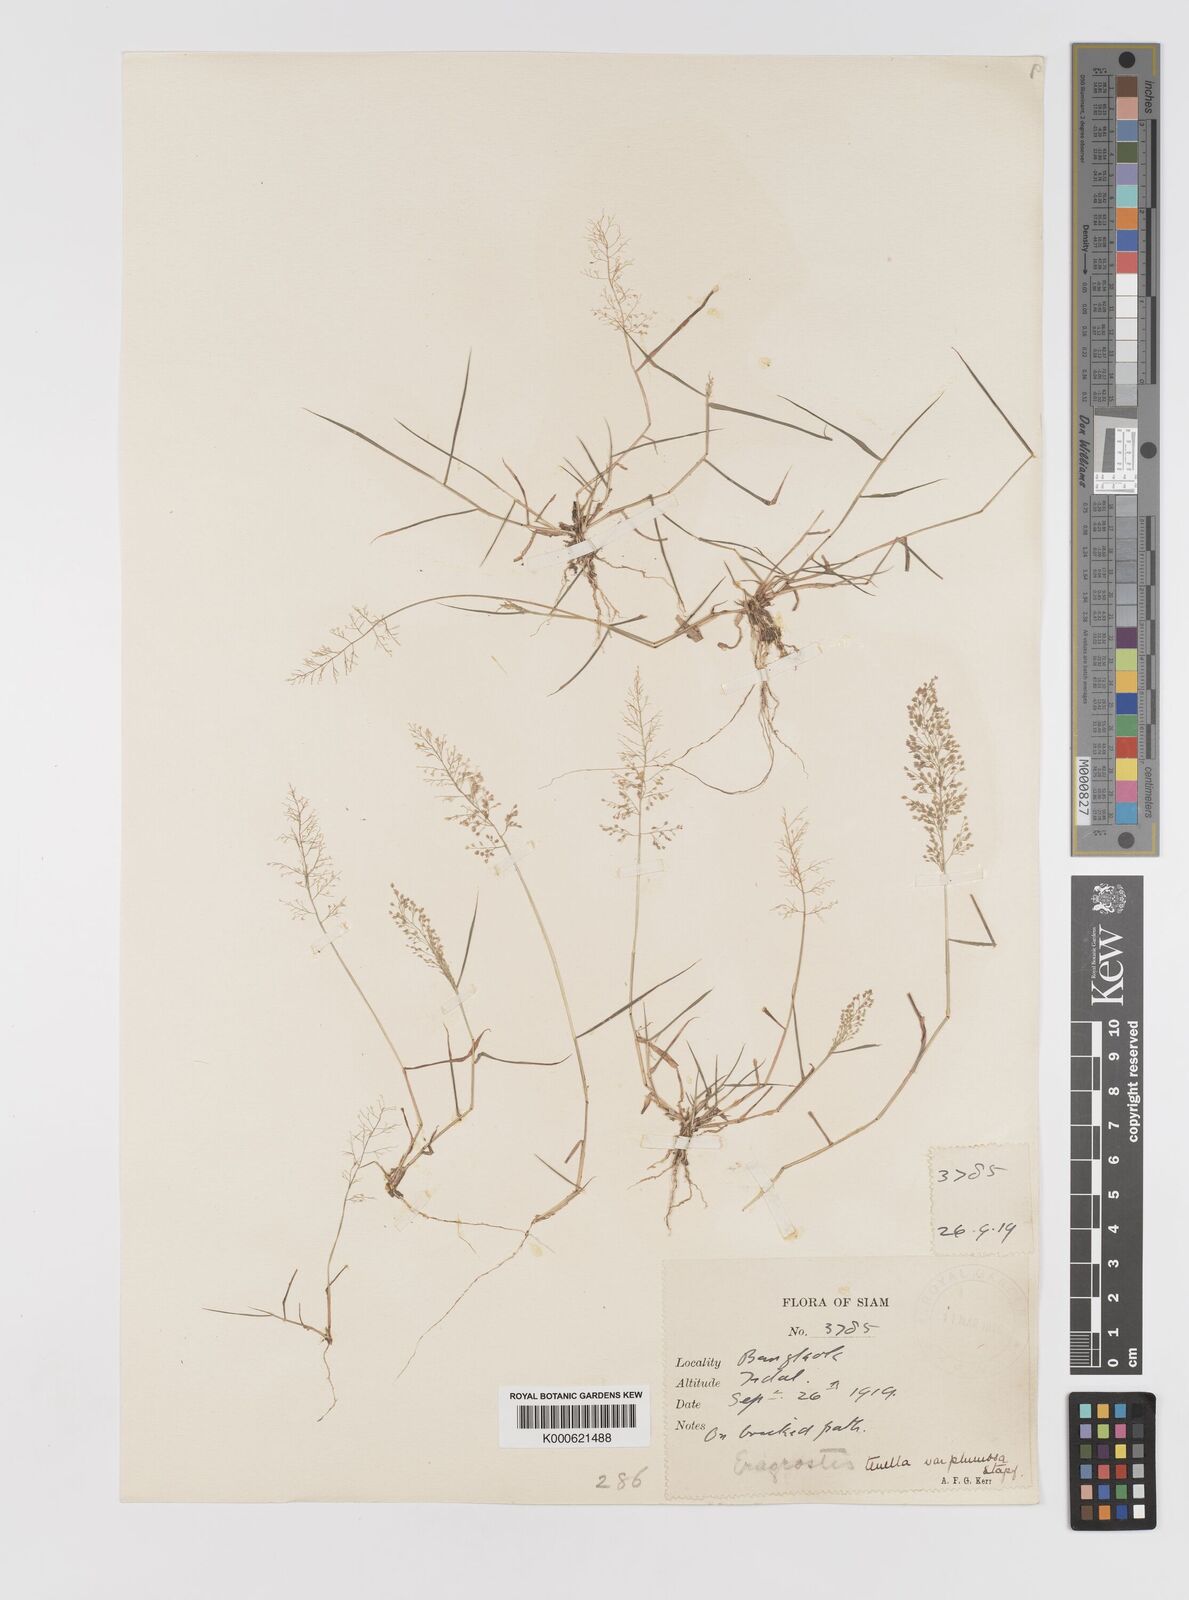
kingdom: Plantae
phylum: Tracheophyta
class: Liliopsida
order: Poales
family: Poaceae
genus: Eragrostis
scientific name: Eragrostis tenella
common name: Japanese lovegrass
